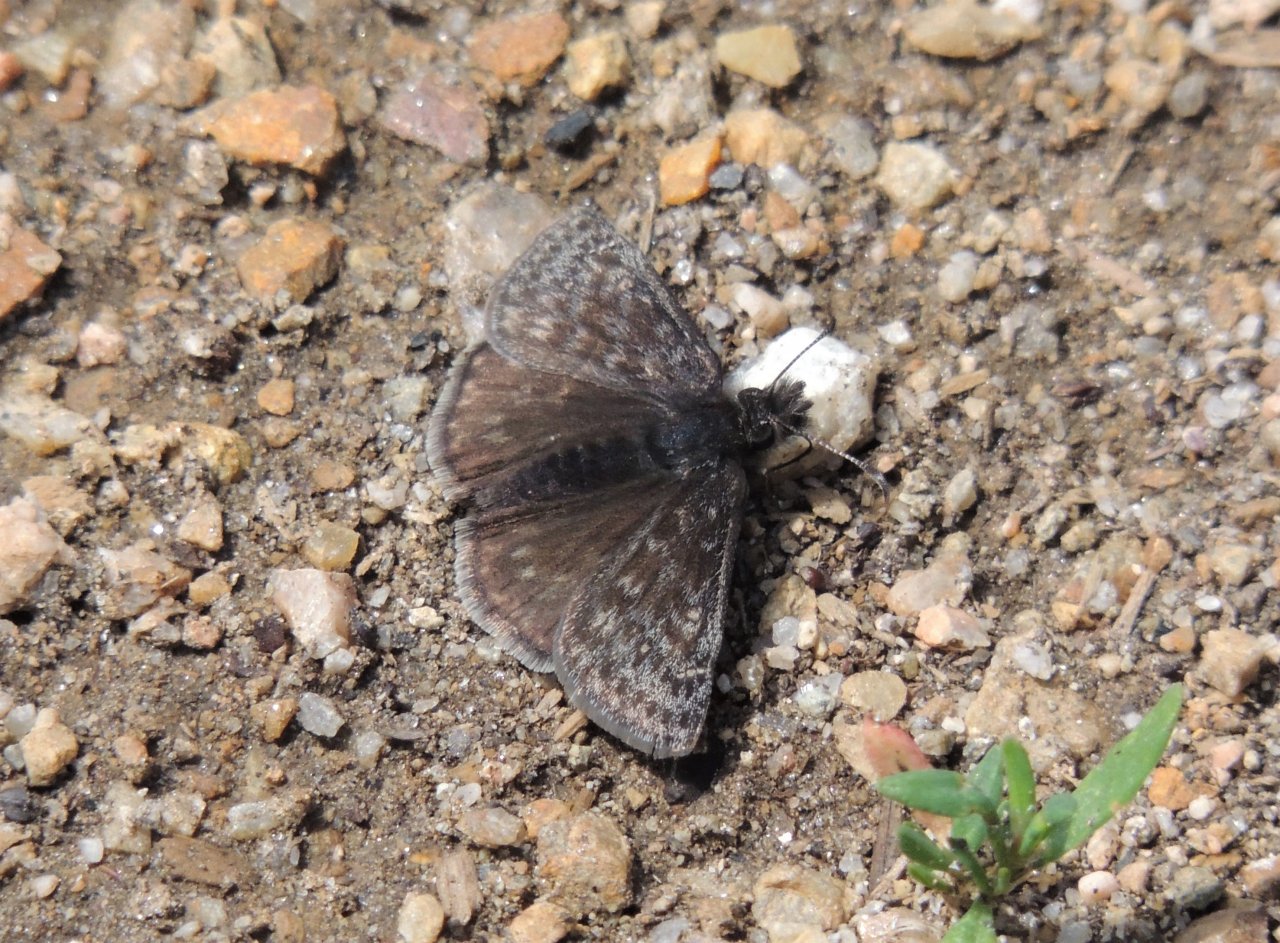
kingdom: Animalia
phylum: Arthropoda
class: Insecta
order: Lepidoptera
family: Hesperiidae
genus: Gesta
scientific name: Gesta
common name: Persius Duskywing
